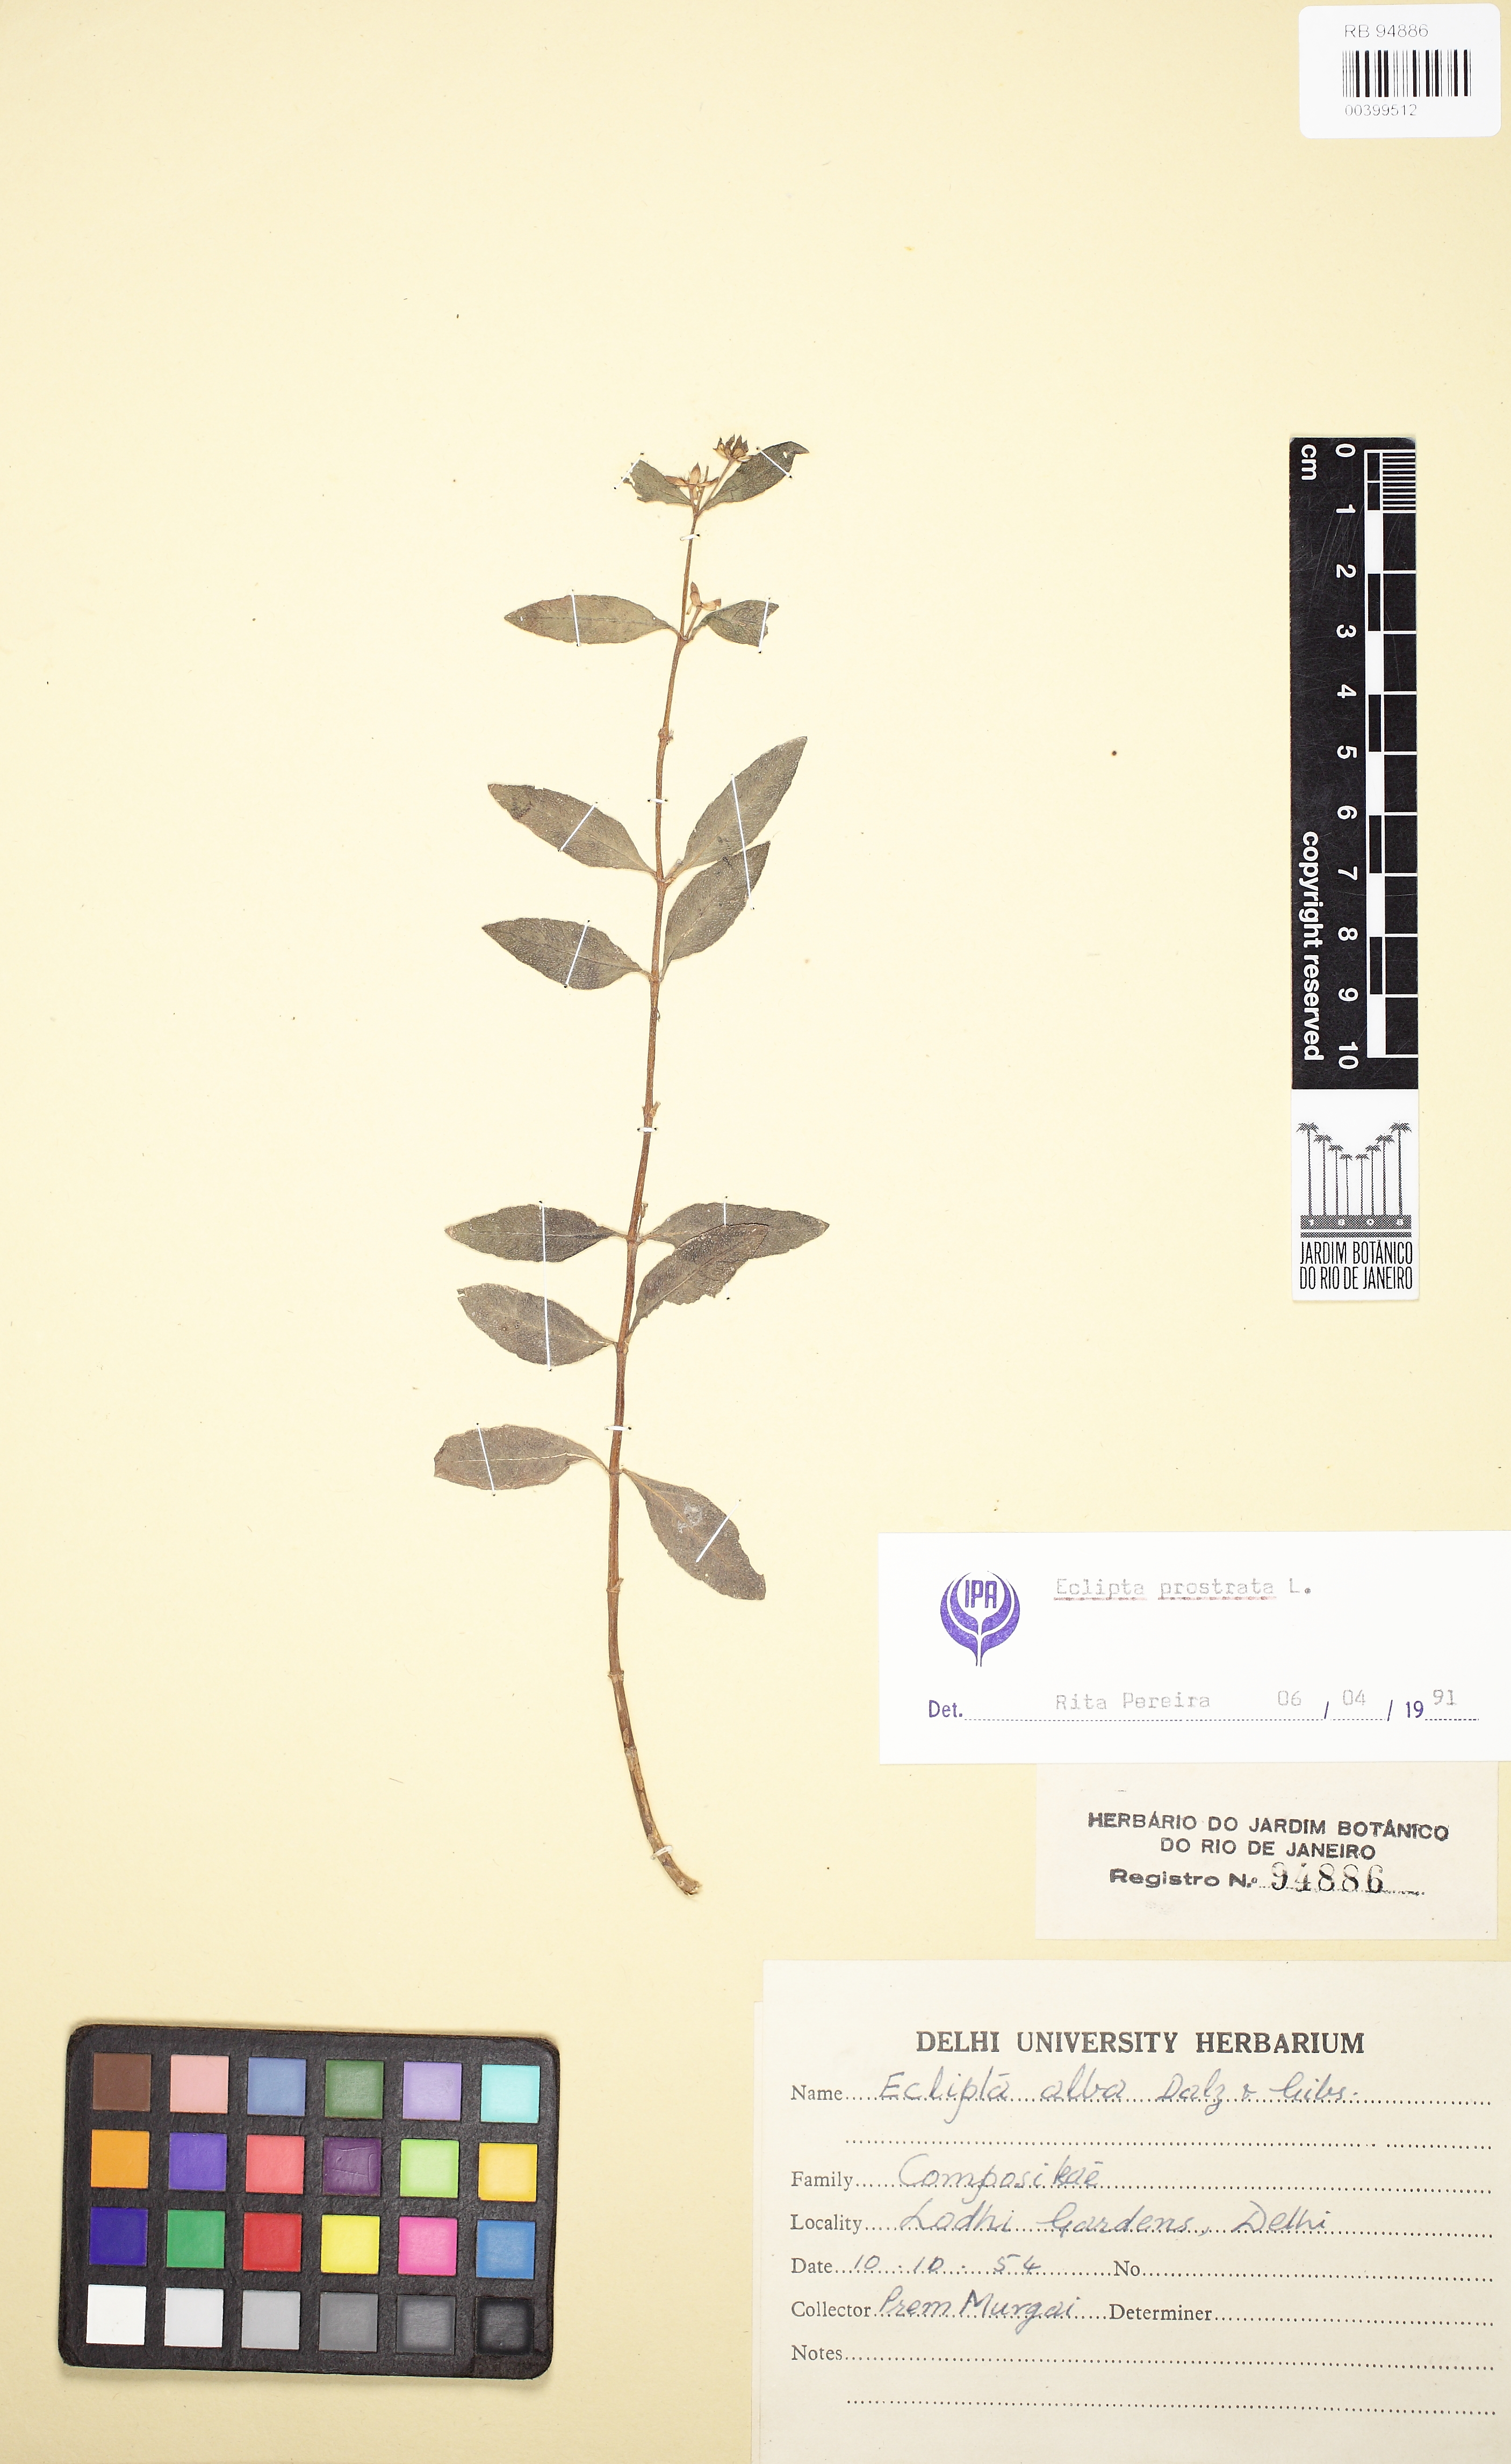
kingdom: Plantae
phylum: Tracheophyta
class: Magnoliopsida
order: Asterales
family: Asteraceae
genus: Eclipta
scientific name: Eclipta prostrata
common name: False daisy
